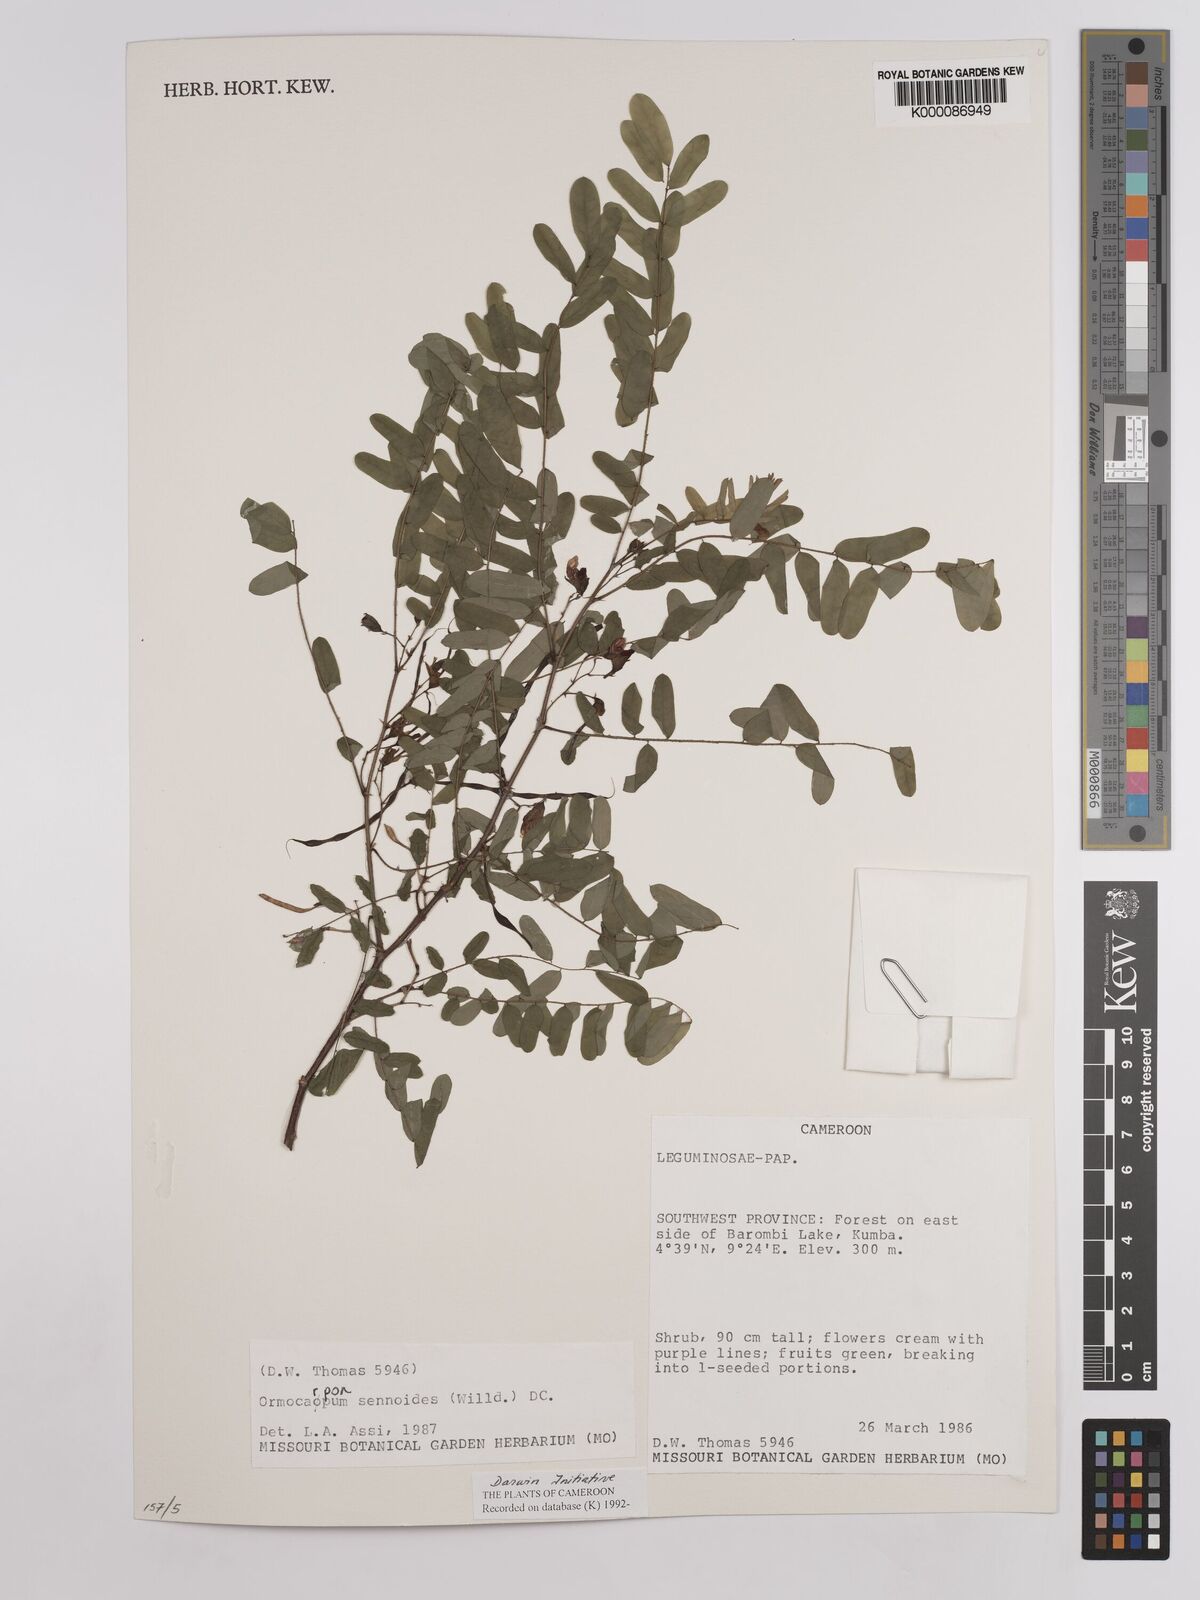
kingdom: Plantae
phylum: Tracheophyta
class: Magnoliopsida
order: Fabales
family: Fabaceae
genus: Ormocarpum
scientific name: Ormocarpum sennoides
